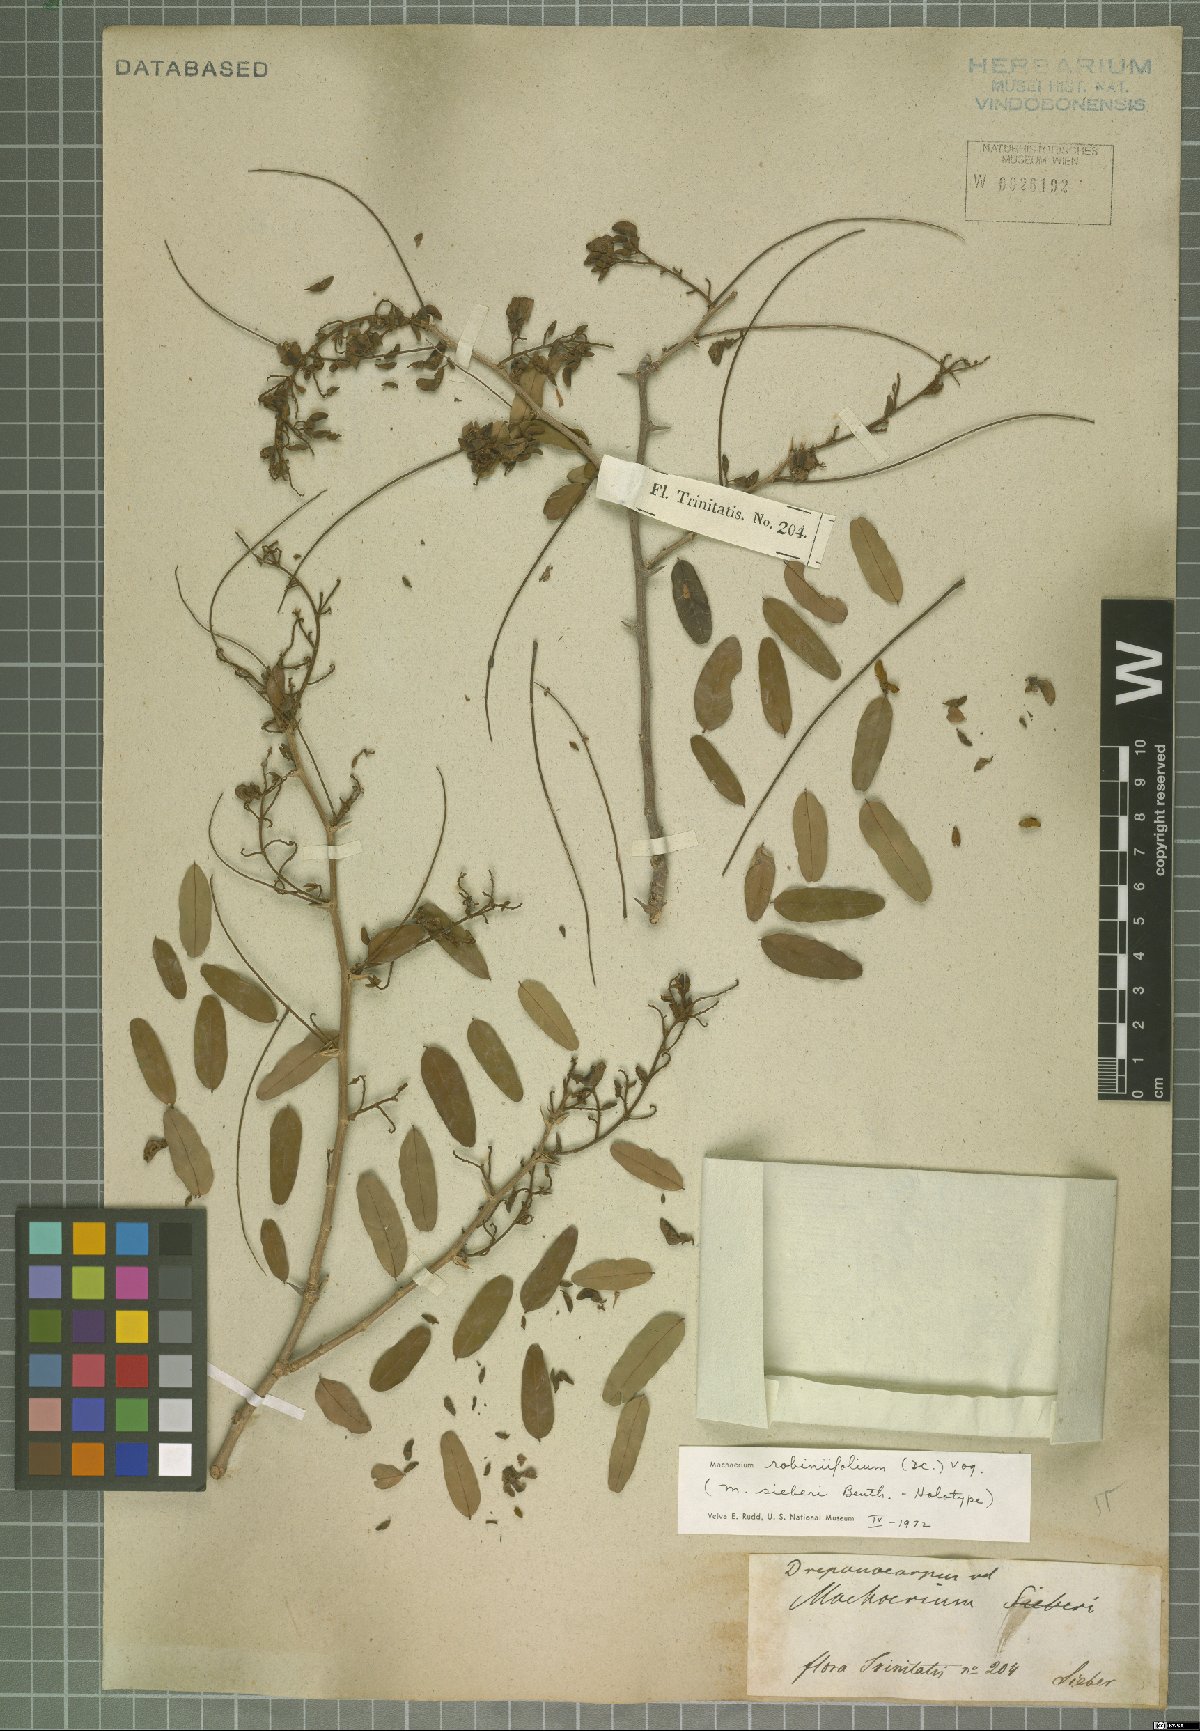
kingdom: Plantae
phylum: Tracheophyta
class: Magnoliopsida
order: Fabales
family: Fabaceae
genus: Machaerium
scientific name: Machaerium robiniifolium
